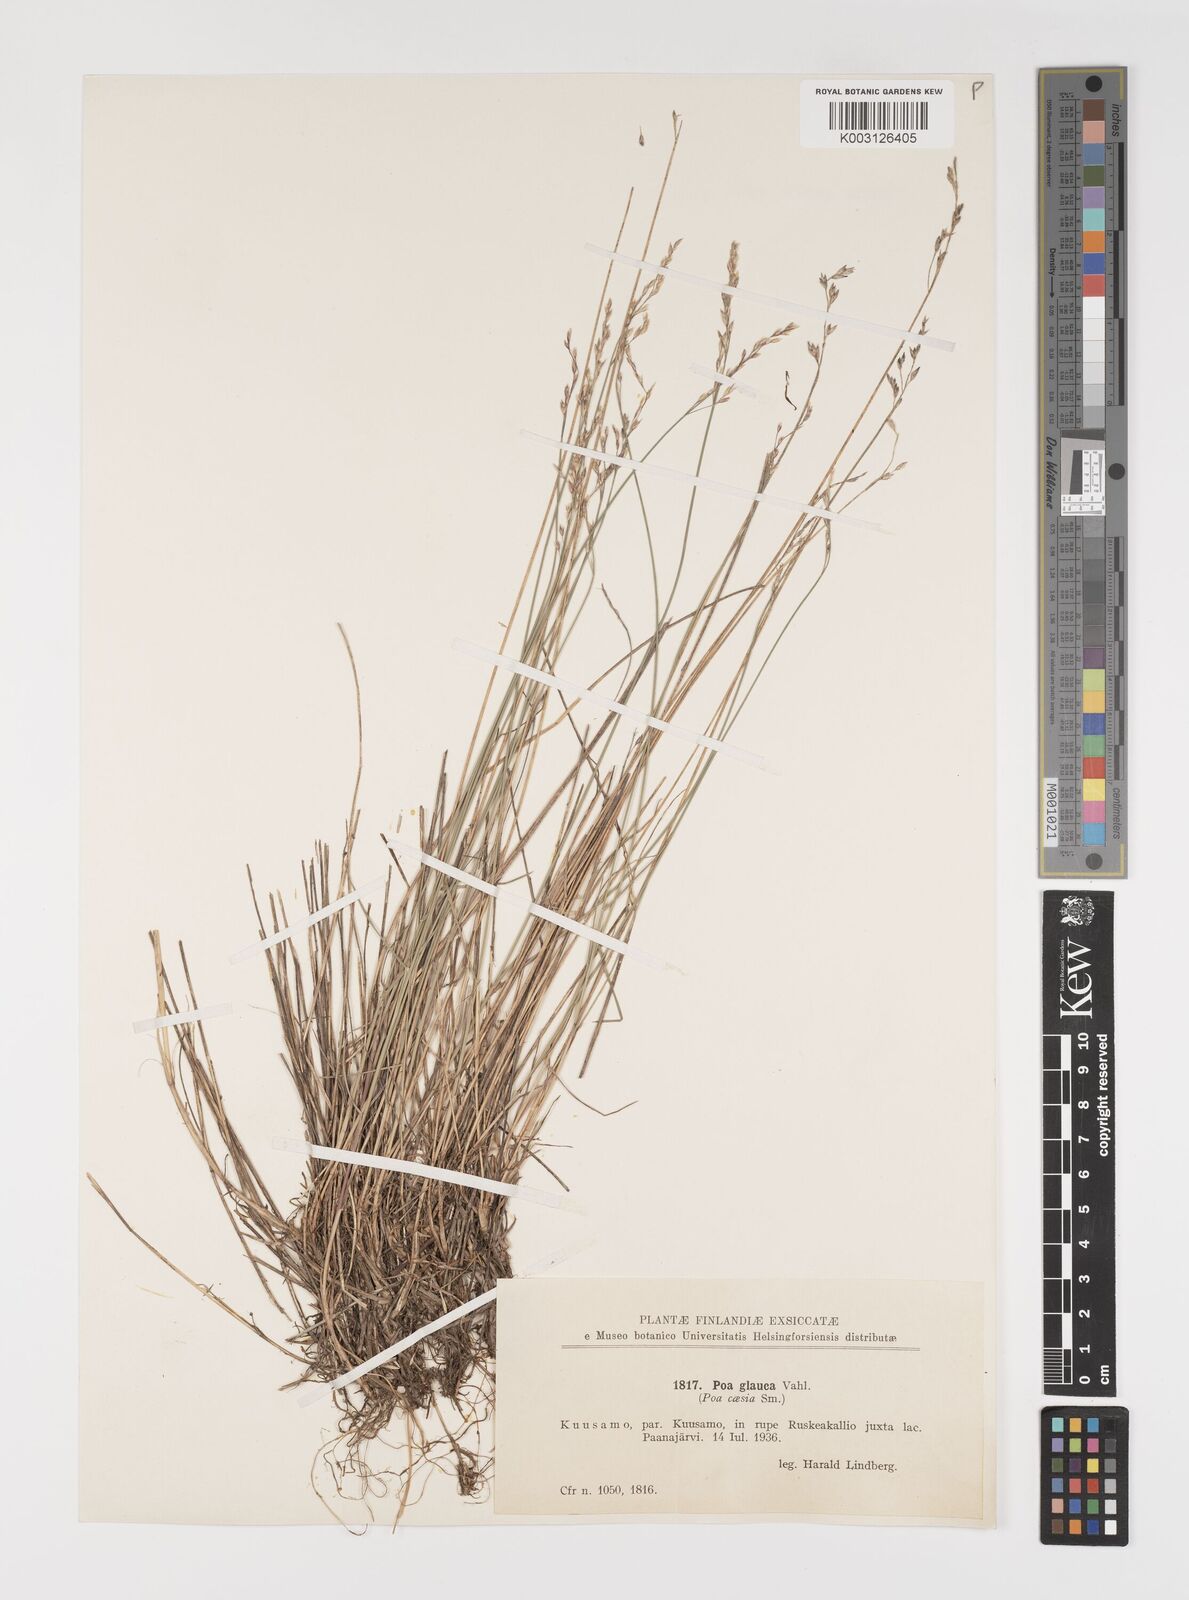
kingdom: Plantae
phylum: Tracheophyta
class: Liliopsida
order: Poales
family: Poaceae
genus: Poa
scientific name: Poa nemoralis
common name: Wood bluegrass
